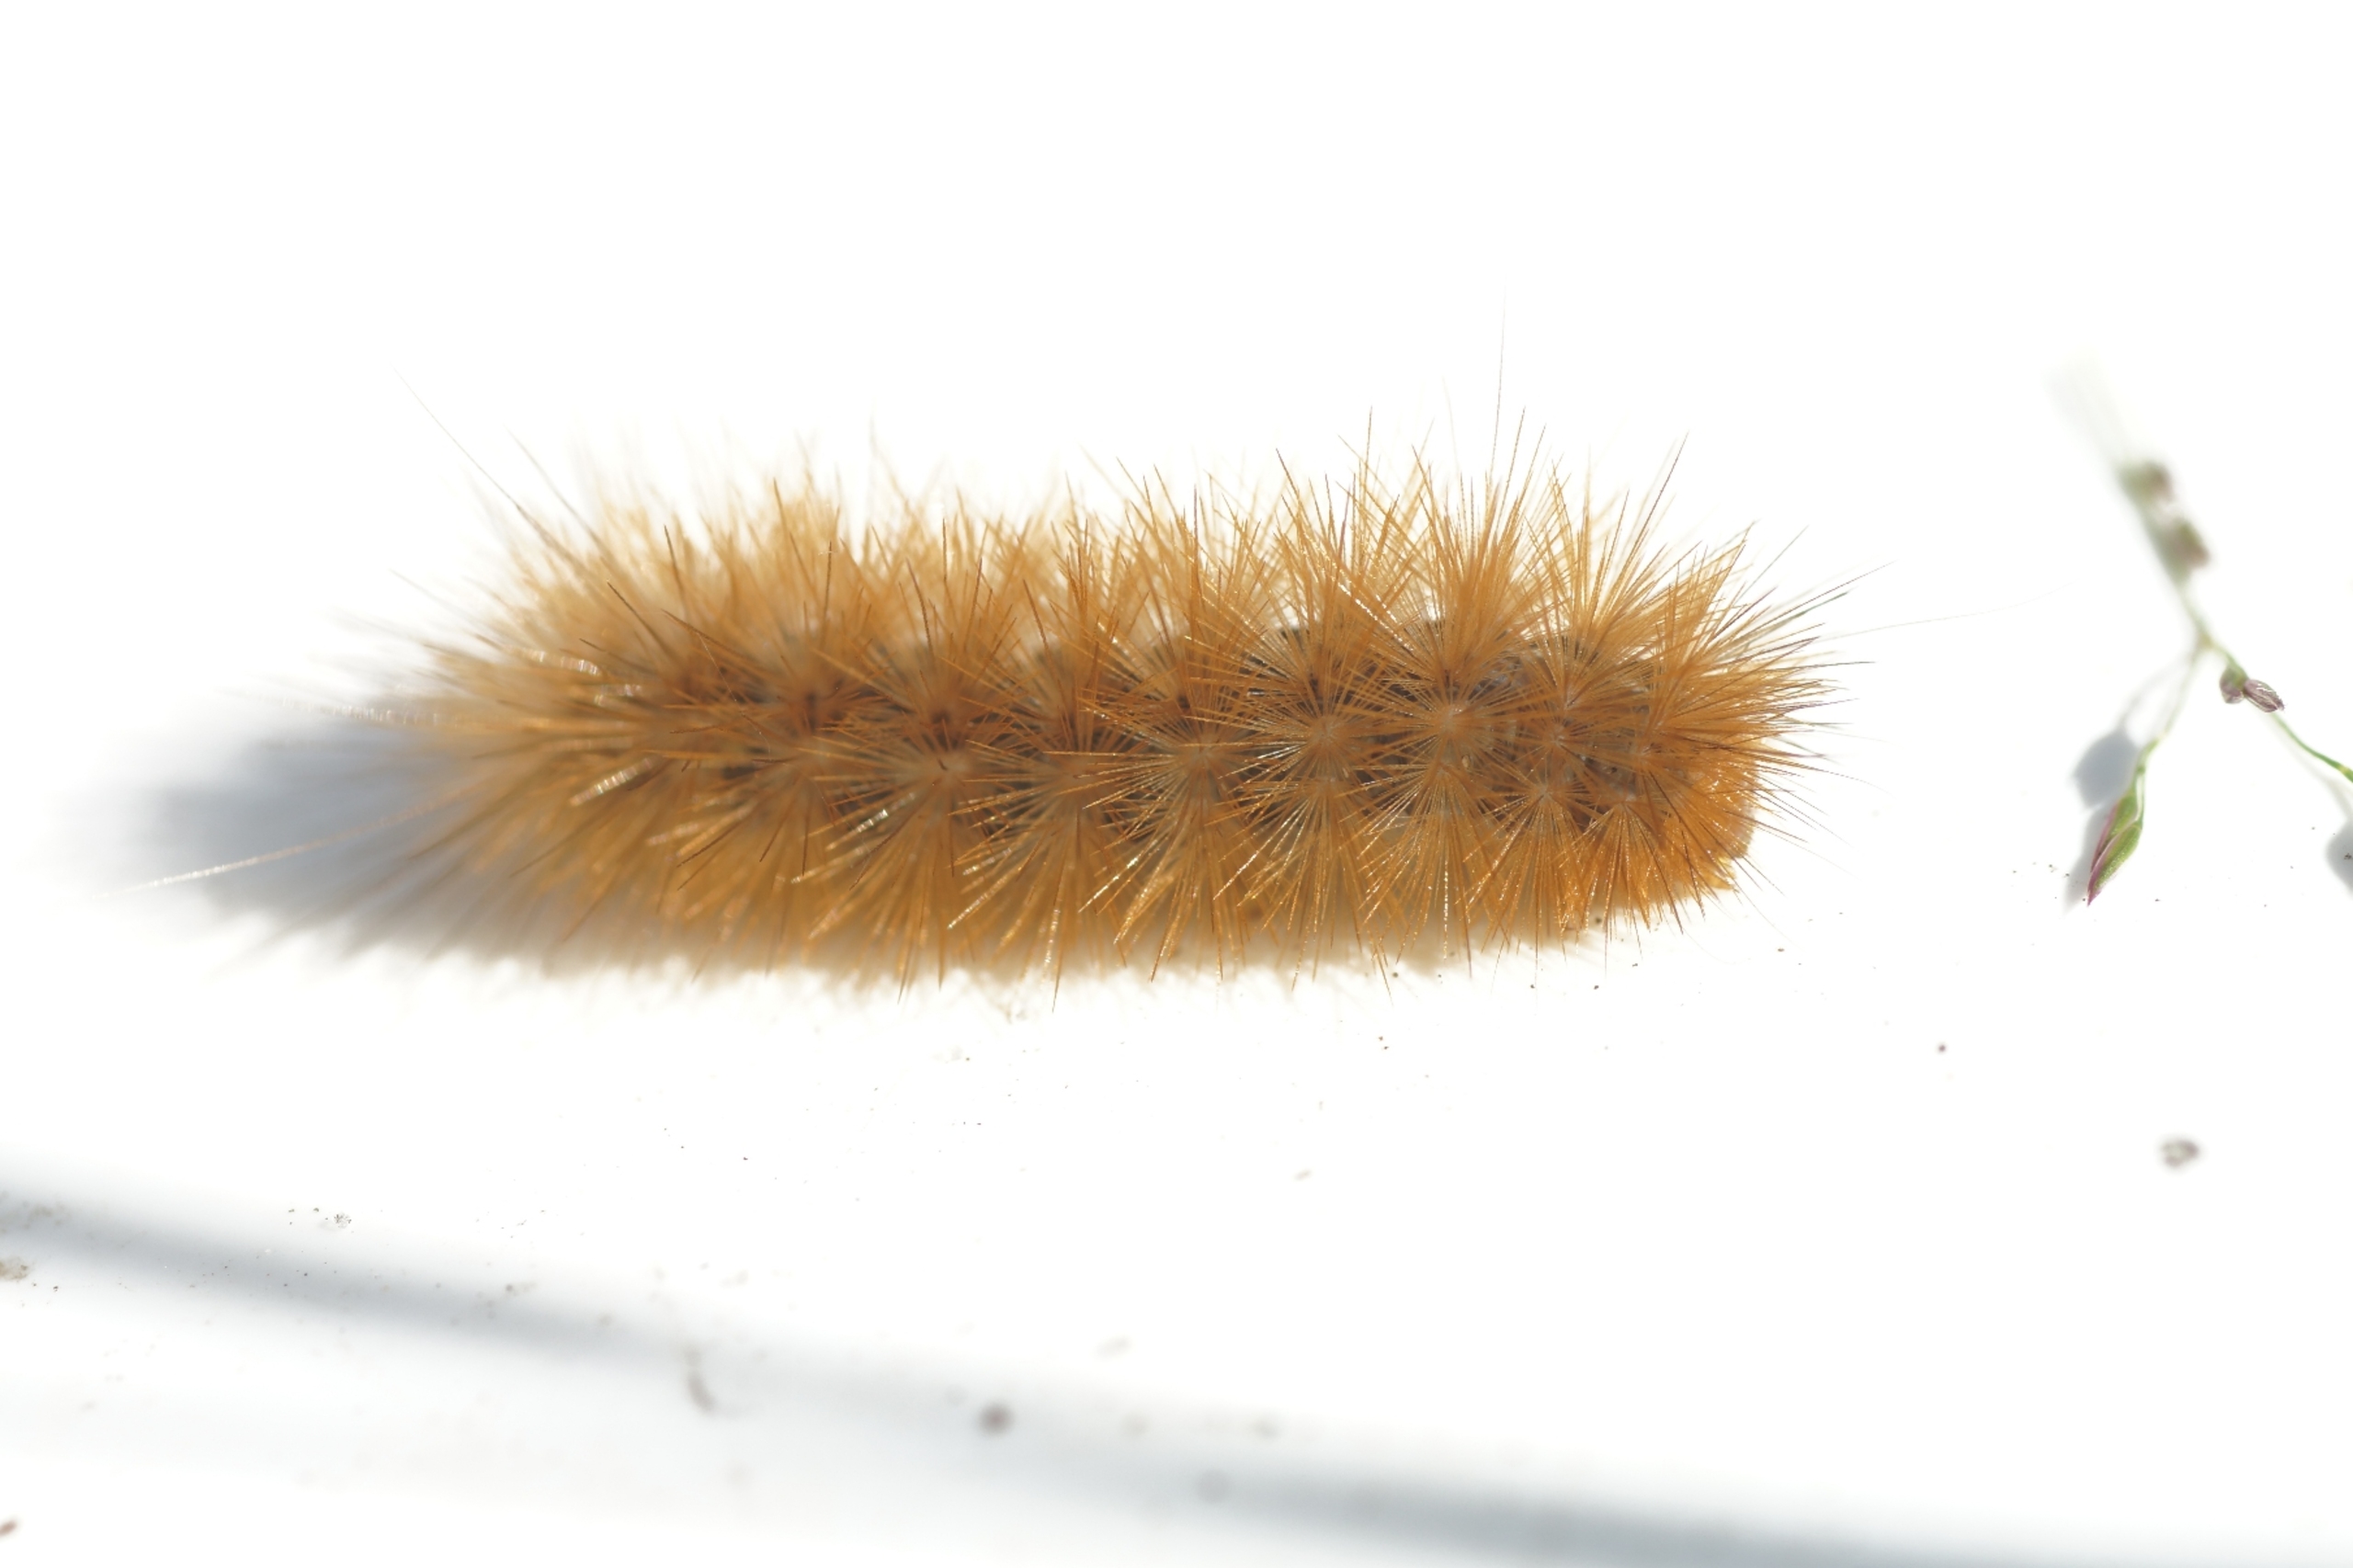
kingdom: Animalia
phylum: Arthropoda
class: Insecta
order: Lepidoptera
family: Erebidae
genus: Phragmatobia
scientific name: Phragmatobia fuliginosa
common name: Kanelbjørn
